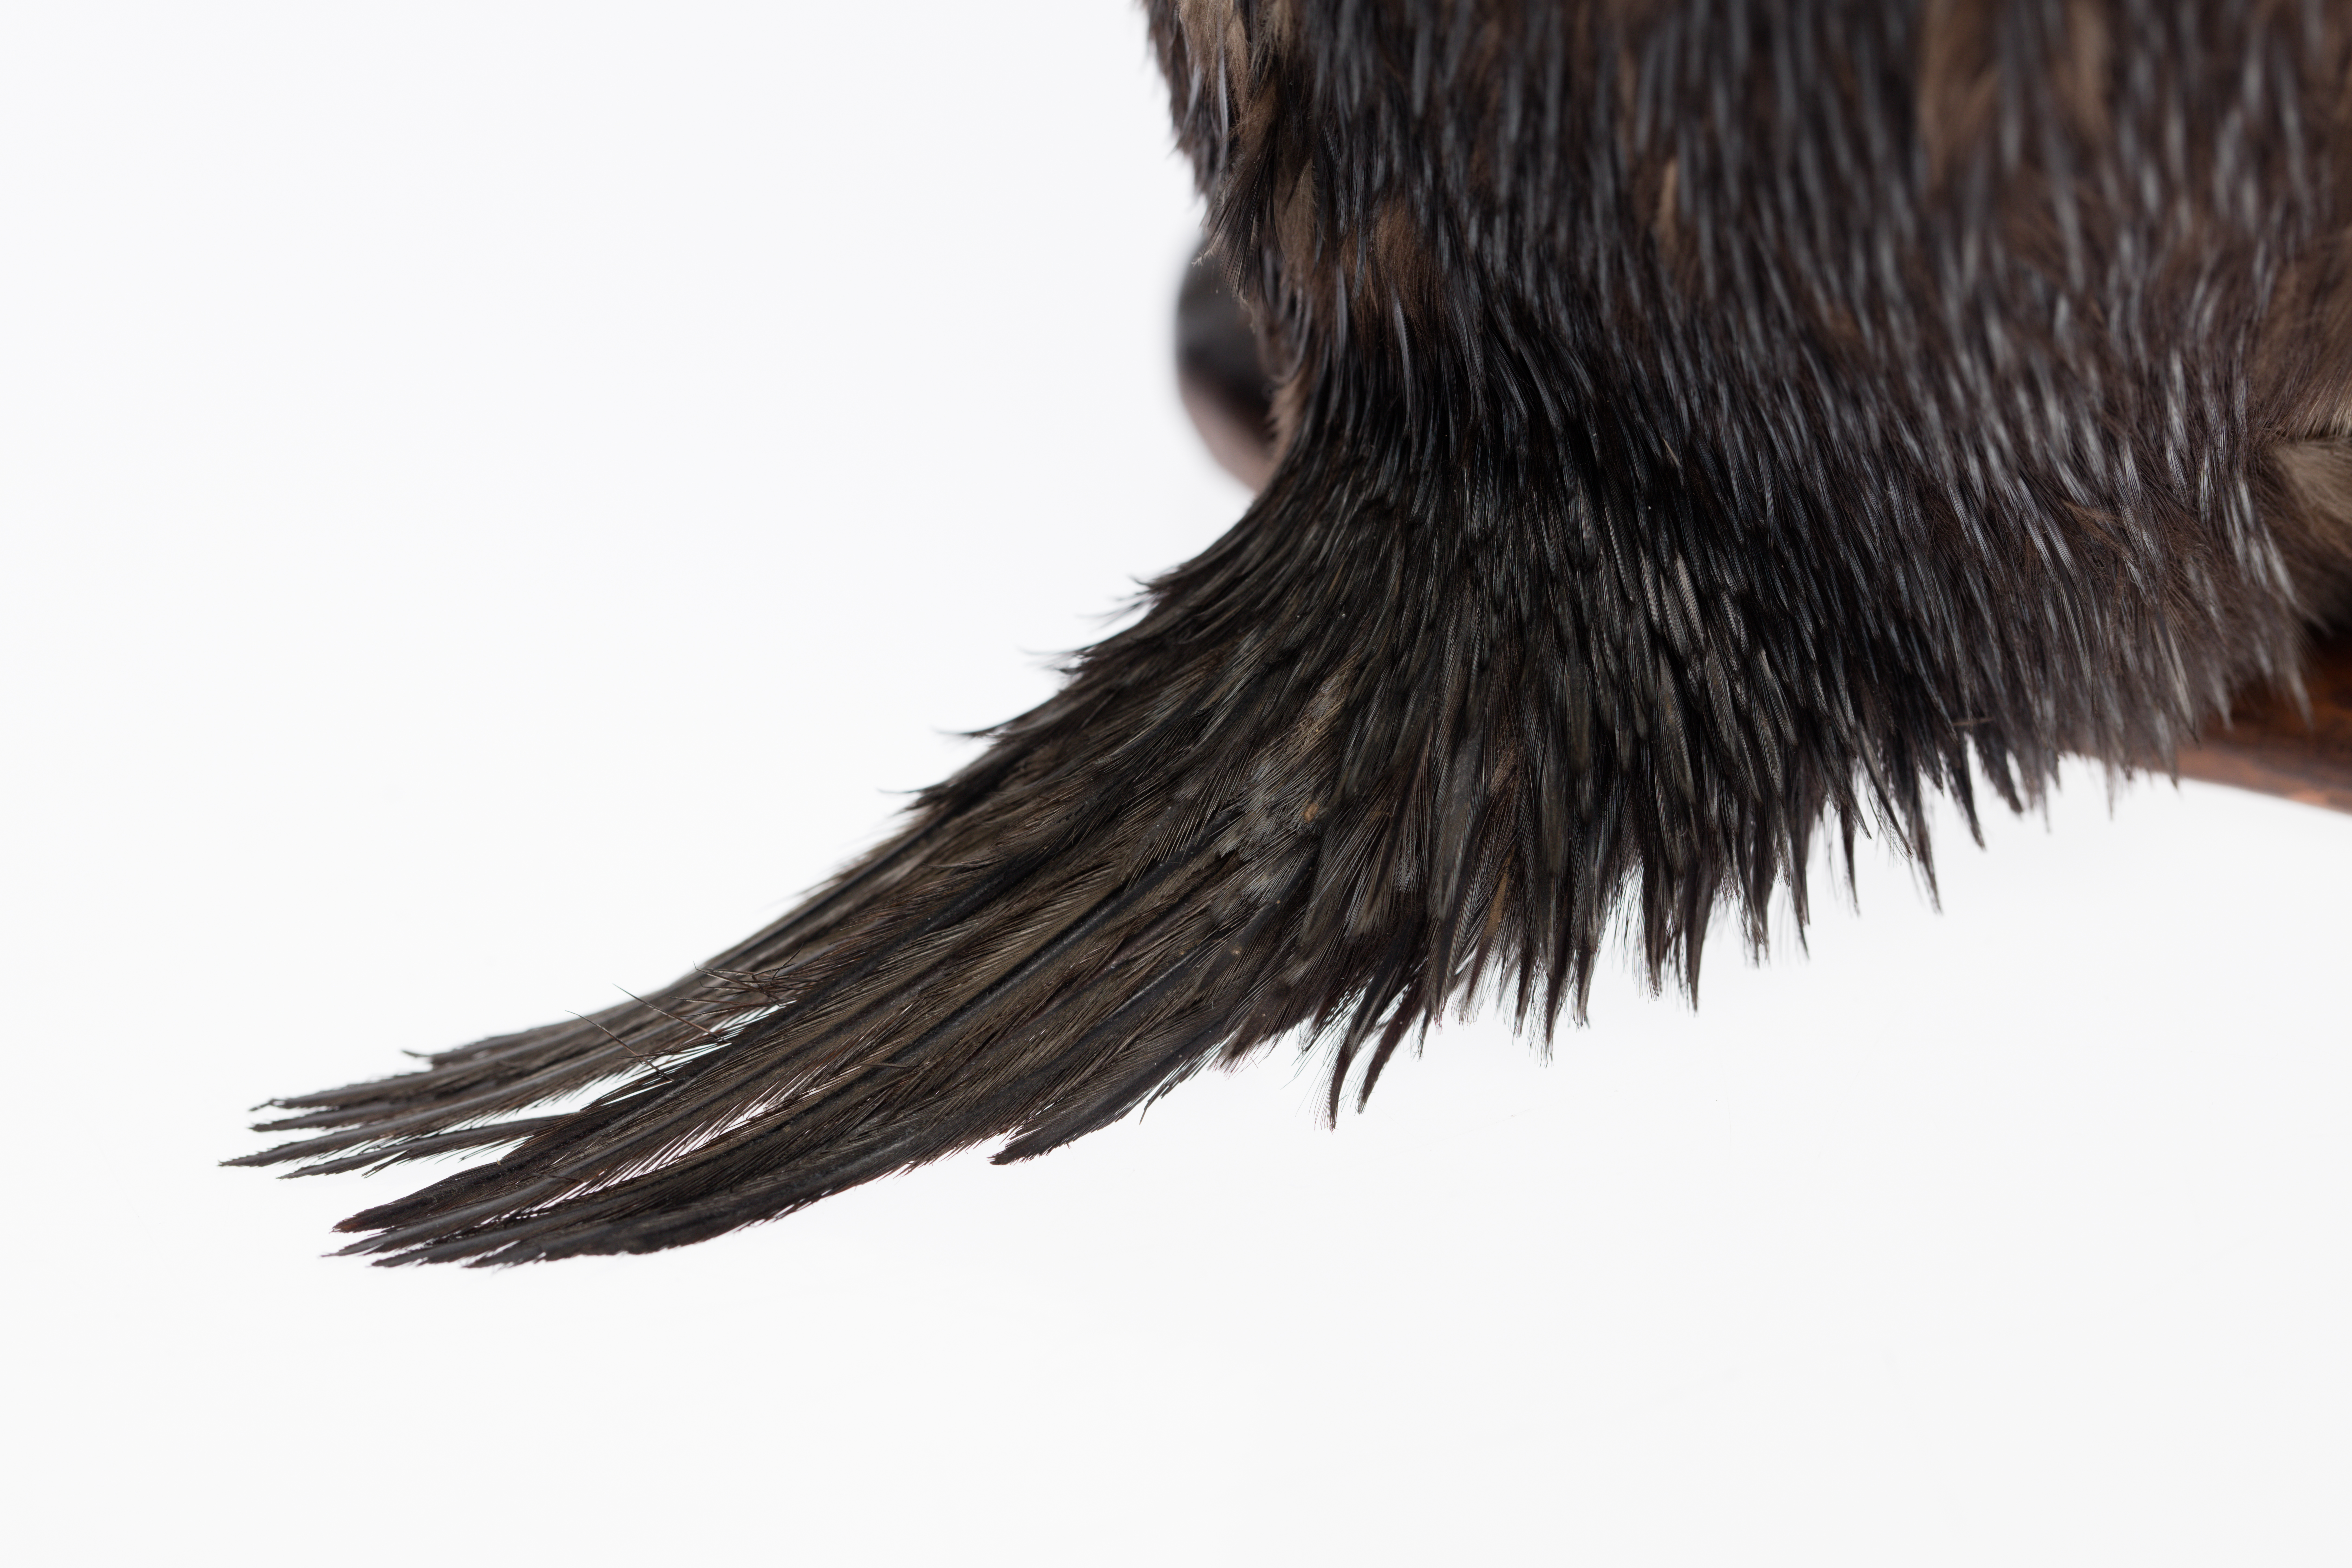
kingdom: Animalia
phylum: Chordata
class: Aves
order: Sphenisciformes
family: Spheniscidae
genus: Eudyptes
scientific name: Eudyptes pachyrhynchus
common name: Fiordland penguin
